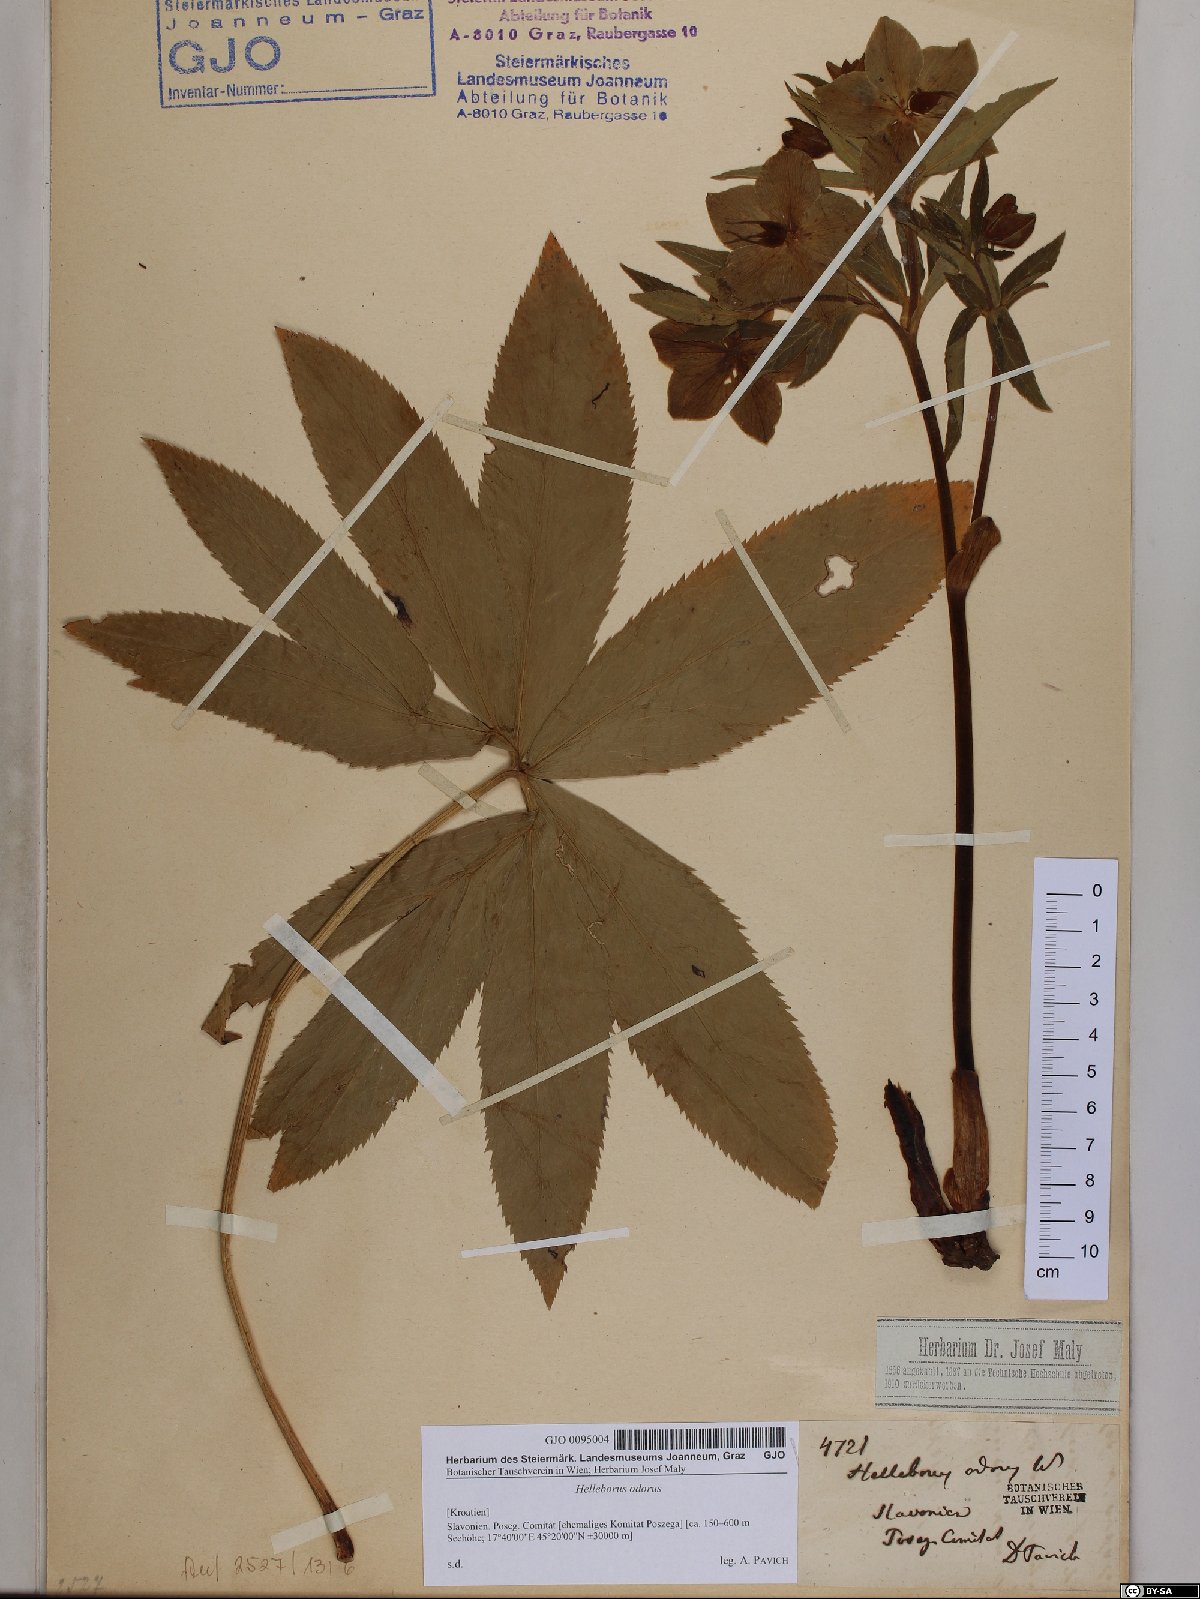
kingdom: Plantae
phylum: Tracheophyta
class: Magnoliopsida
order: Ranunculales
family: Ranunculaceae
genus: Helleborus
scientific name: Helleborus odorus
